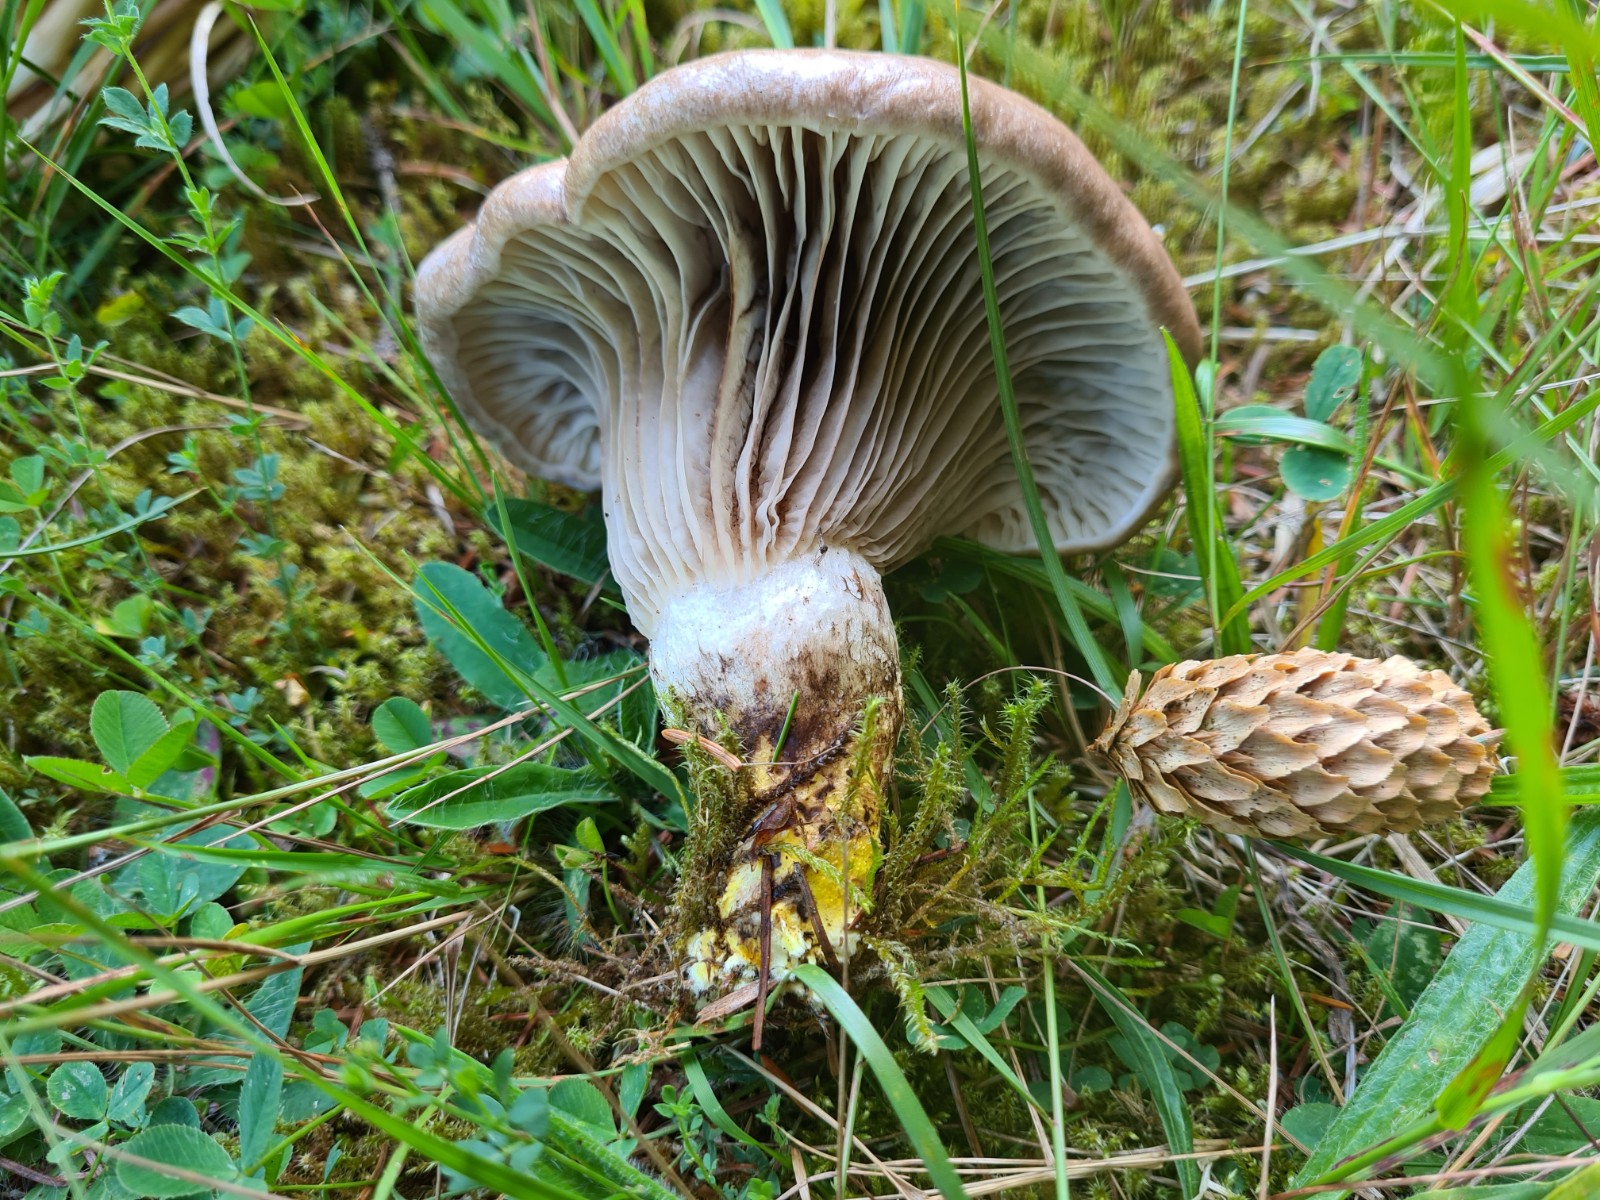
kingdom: Fungi
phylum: Basidiomycota
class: Agaricomycetes
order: Boletales
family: Gomphidiaceae
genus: Gomphidius
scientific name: Gomphidius glutinosus
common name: grå slimslør
